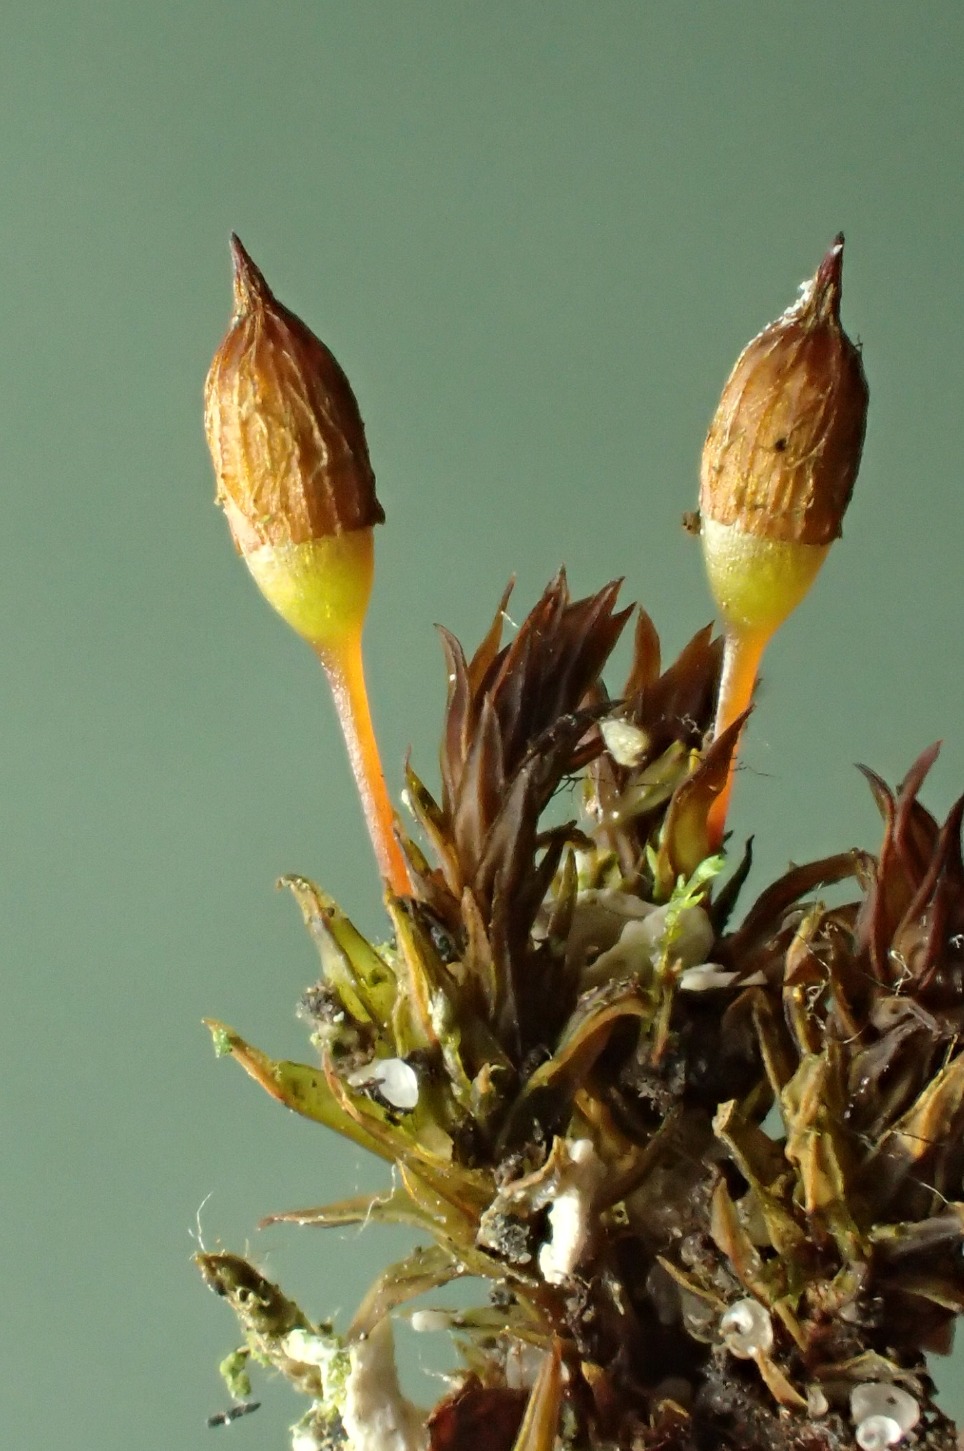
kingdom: Plantae
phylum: Bryophyta
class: Bryopsida
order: Orthotrichales
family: Orthotrichaceae
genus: Orthotrichum
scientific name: Orthotrichum anomalum
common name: Mørk furehætte
